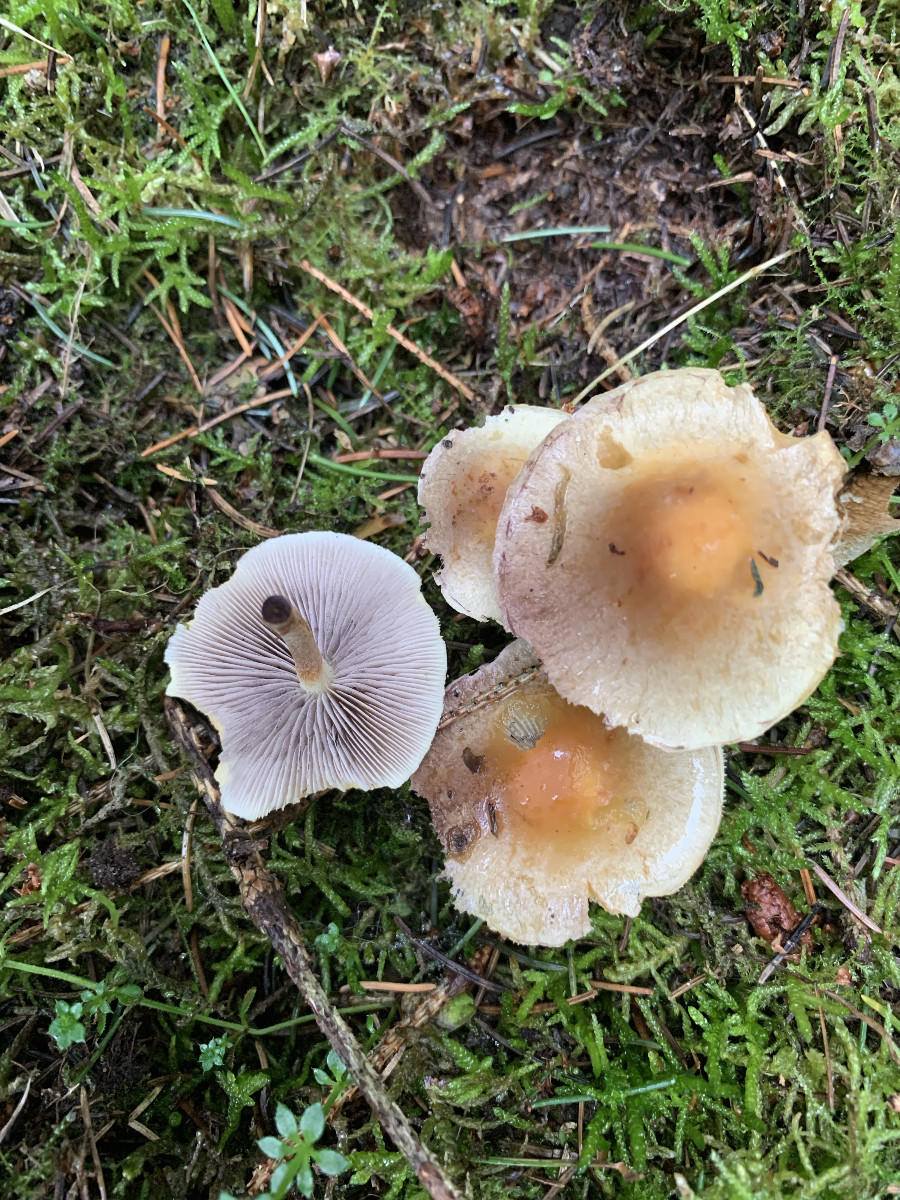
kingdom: Fungi
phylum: Basidiomycota
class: Agaricomycetes
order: Agaricales
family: Strophariaceae
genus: Hypholoma
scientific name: Hypholoma capnoides
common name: gran-svovlhat
